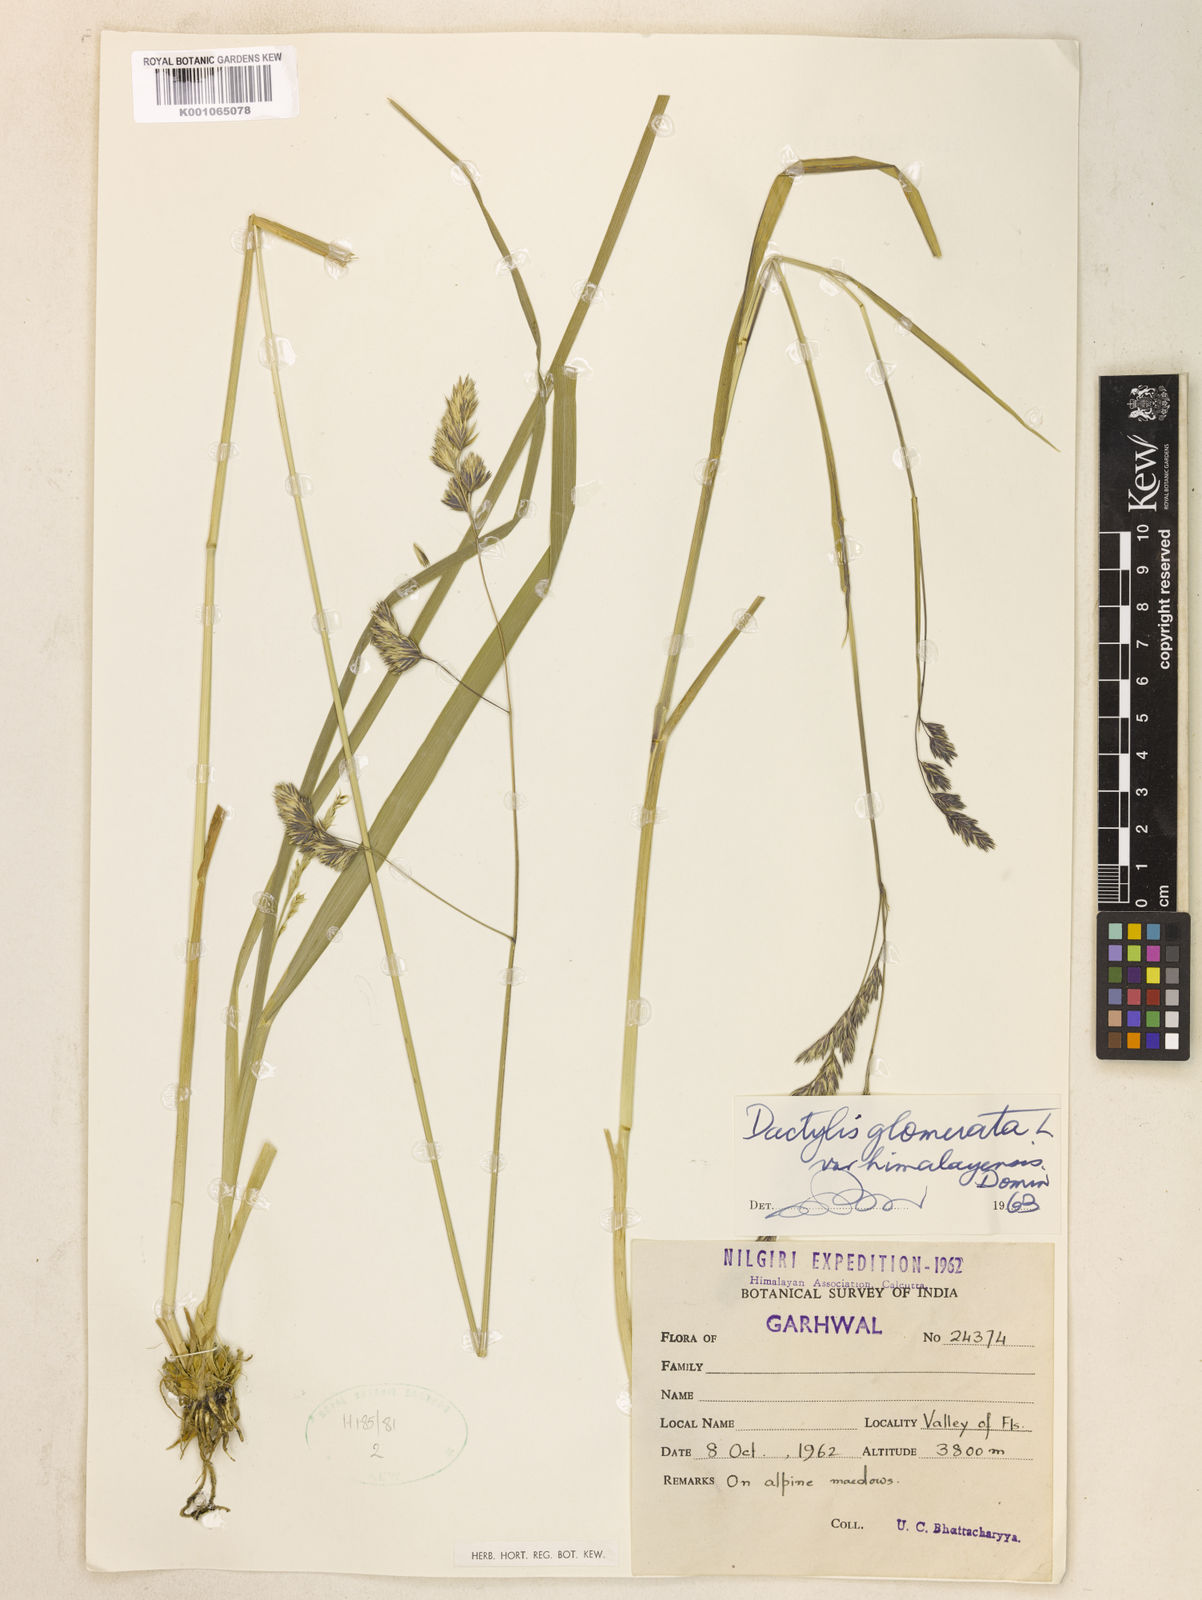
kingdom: Plantae
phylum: Tracheophyta
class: Liliopsida
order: Poales
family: Poaceae
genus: Dactylis
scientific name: Dactylis glomerata
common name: Orchardgrass
